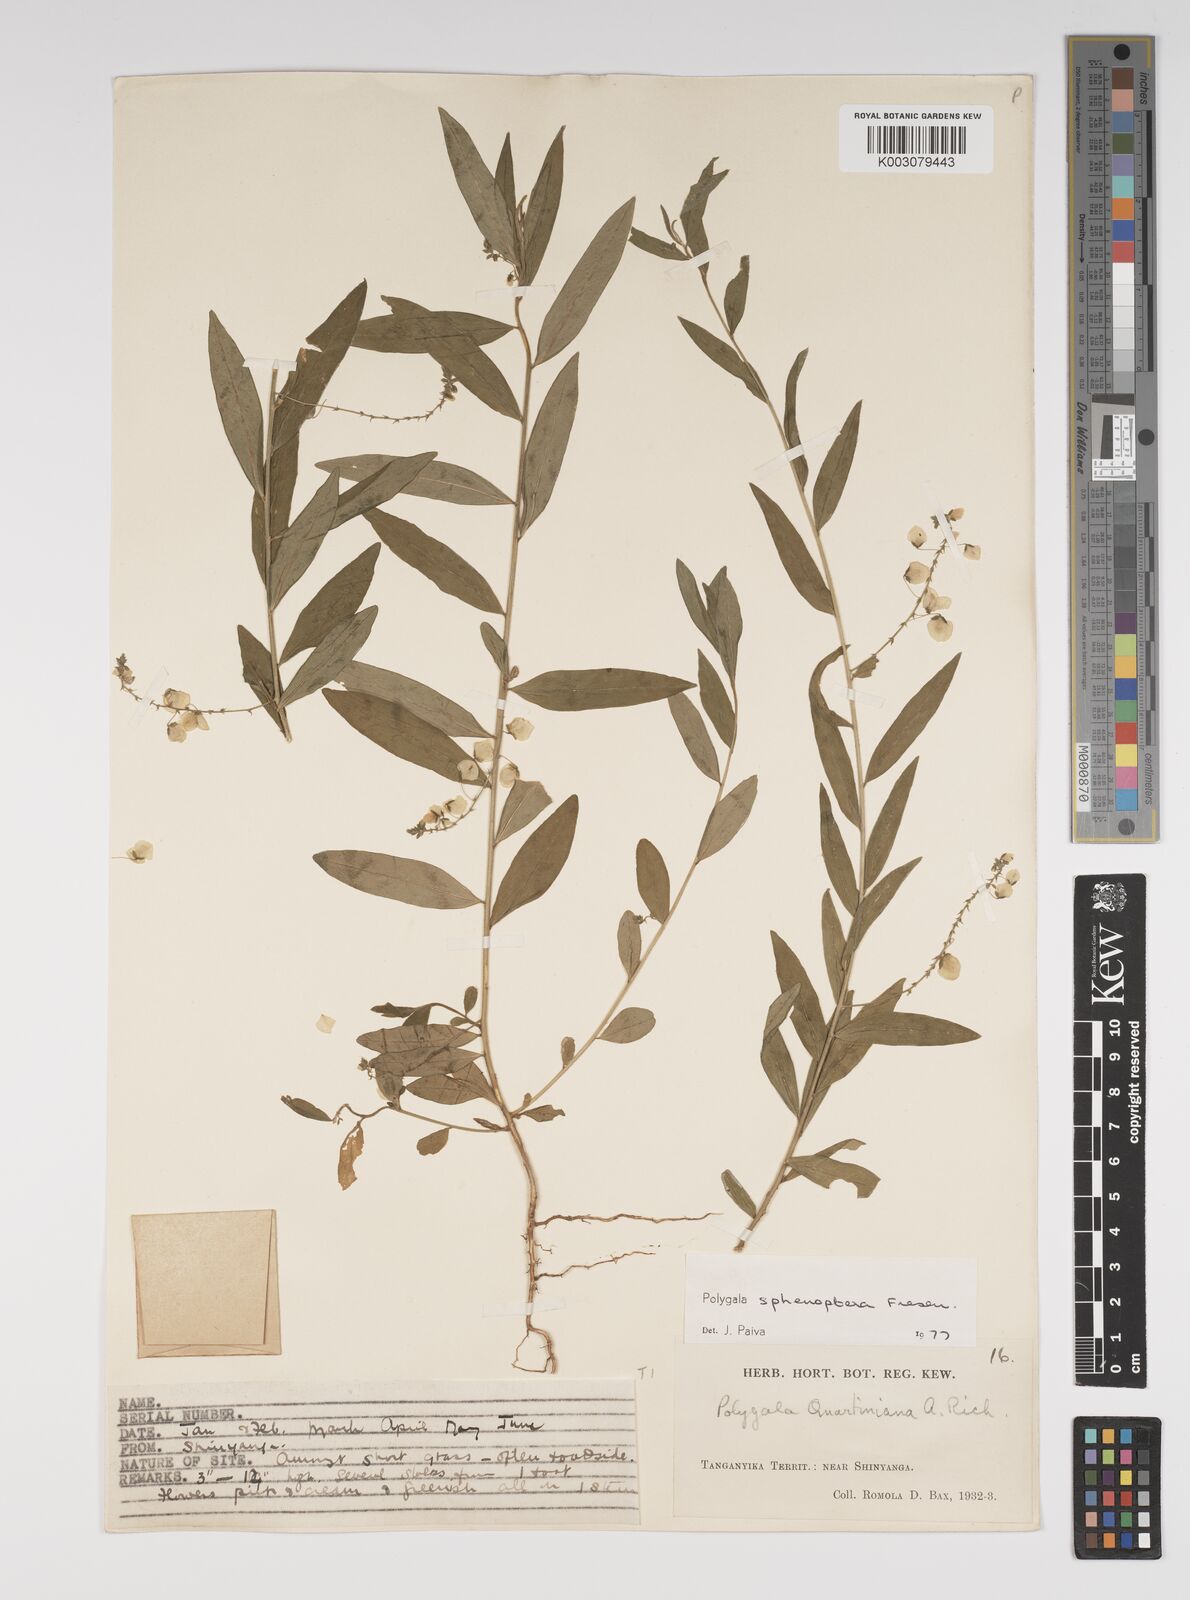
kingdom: Plantae
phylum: Tracheophyta
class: Magnoliopsida
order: Fabales
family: Polygalaceae
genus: Polygala
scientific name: Polygala sphenoptera
